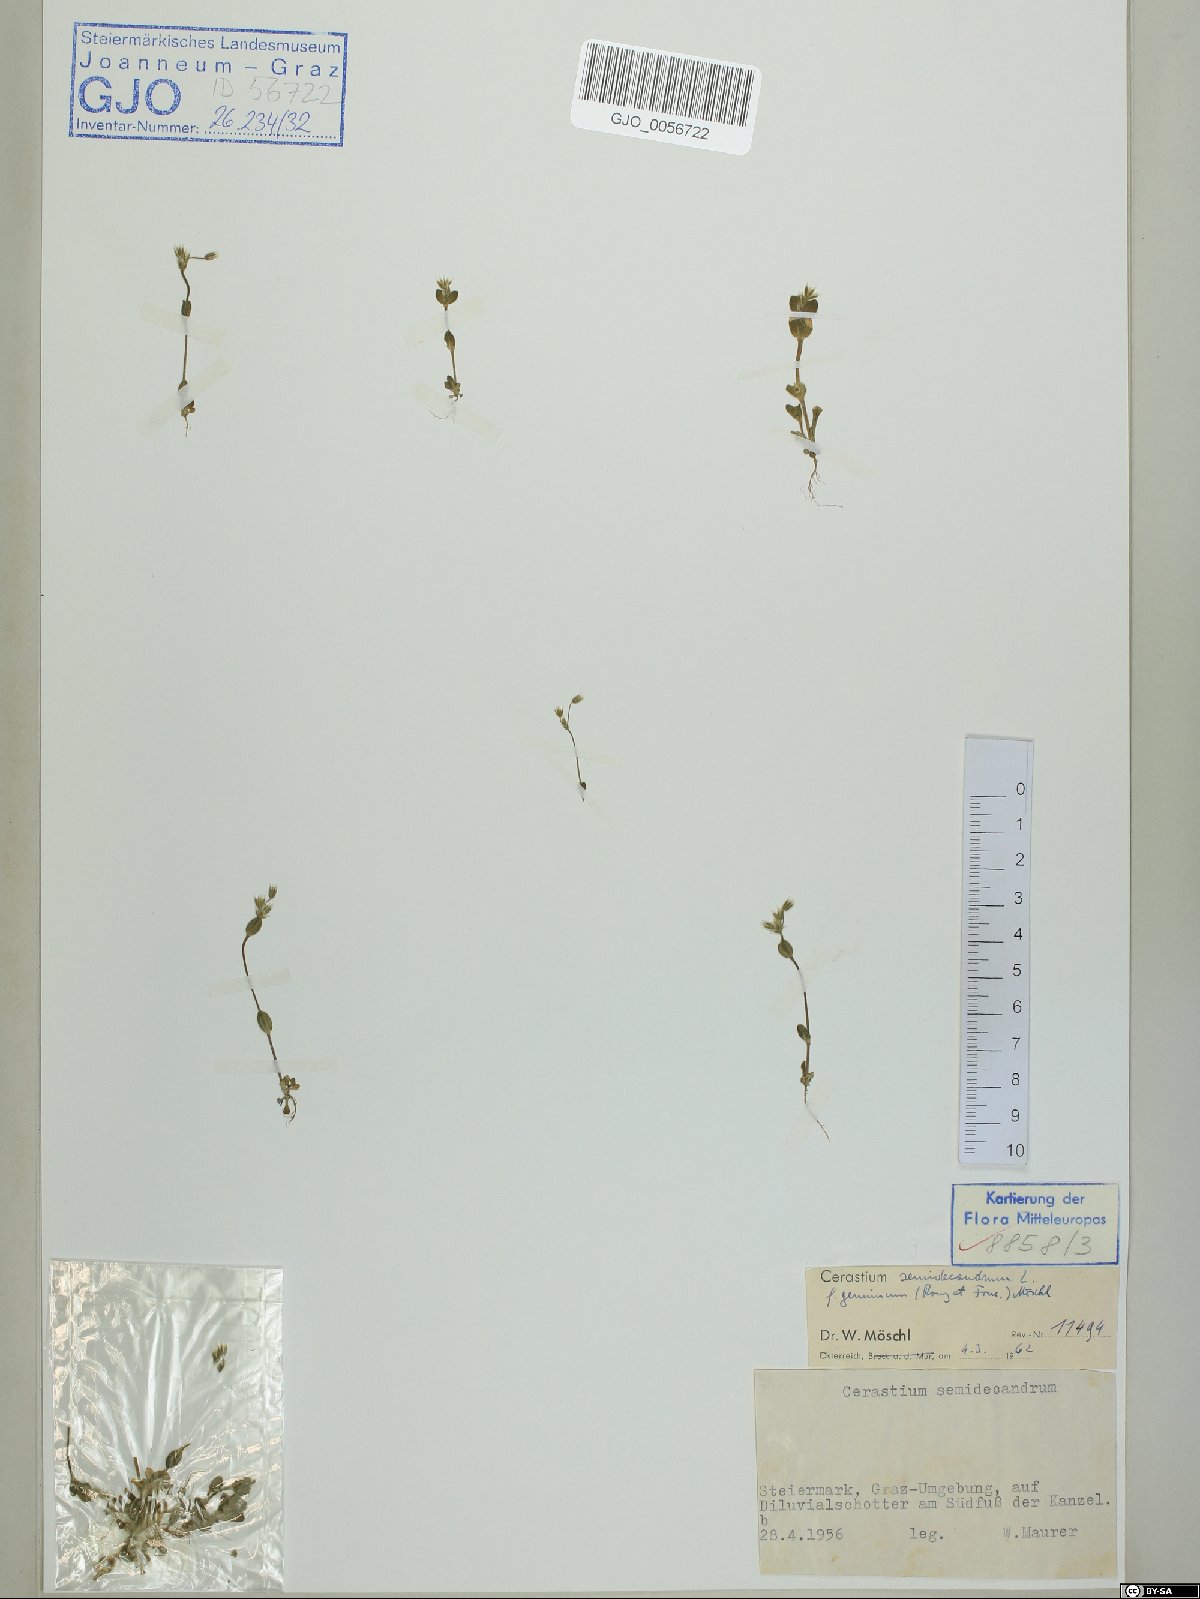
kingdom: Plantae
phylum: Tracheophyta
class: Magnoliopsida
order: Caryophyllales
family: Caryophyllaceae
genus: Cerastium
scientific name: Cerastium semidecandrum
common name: Little mouse-ear
